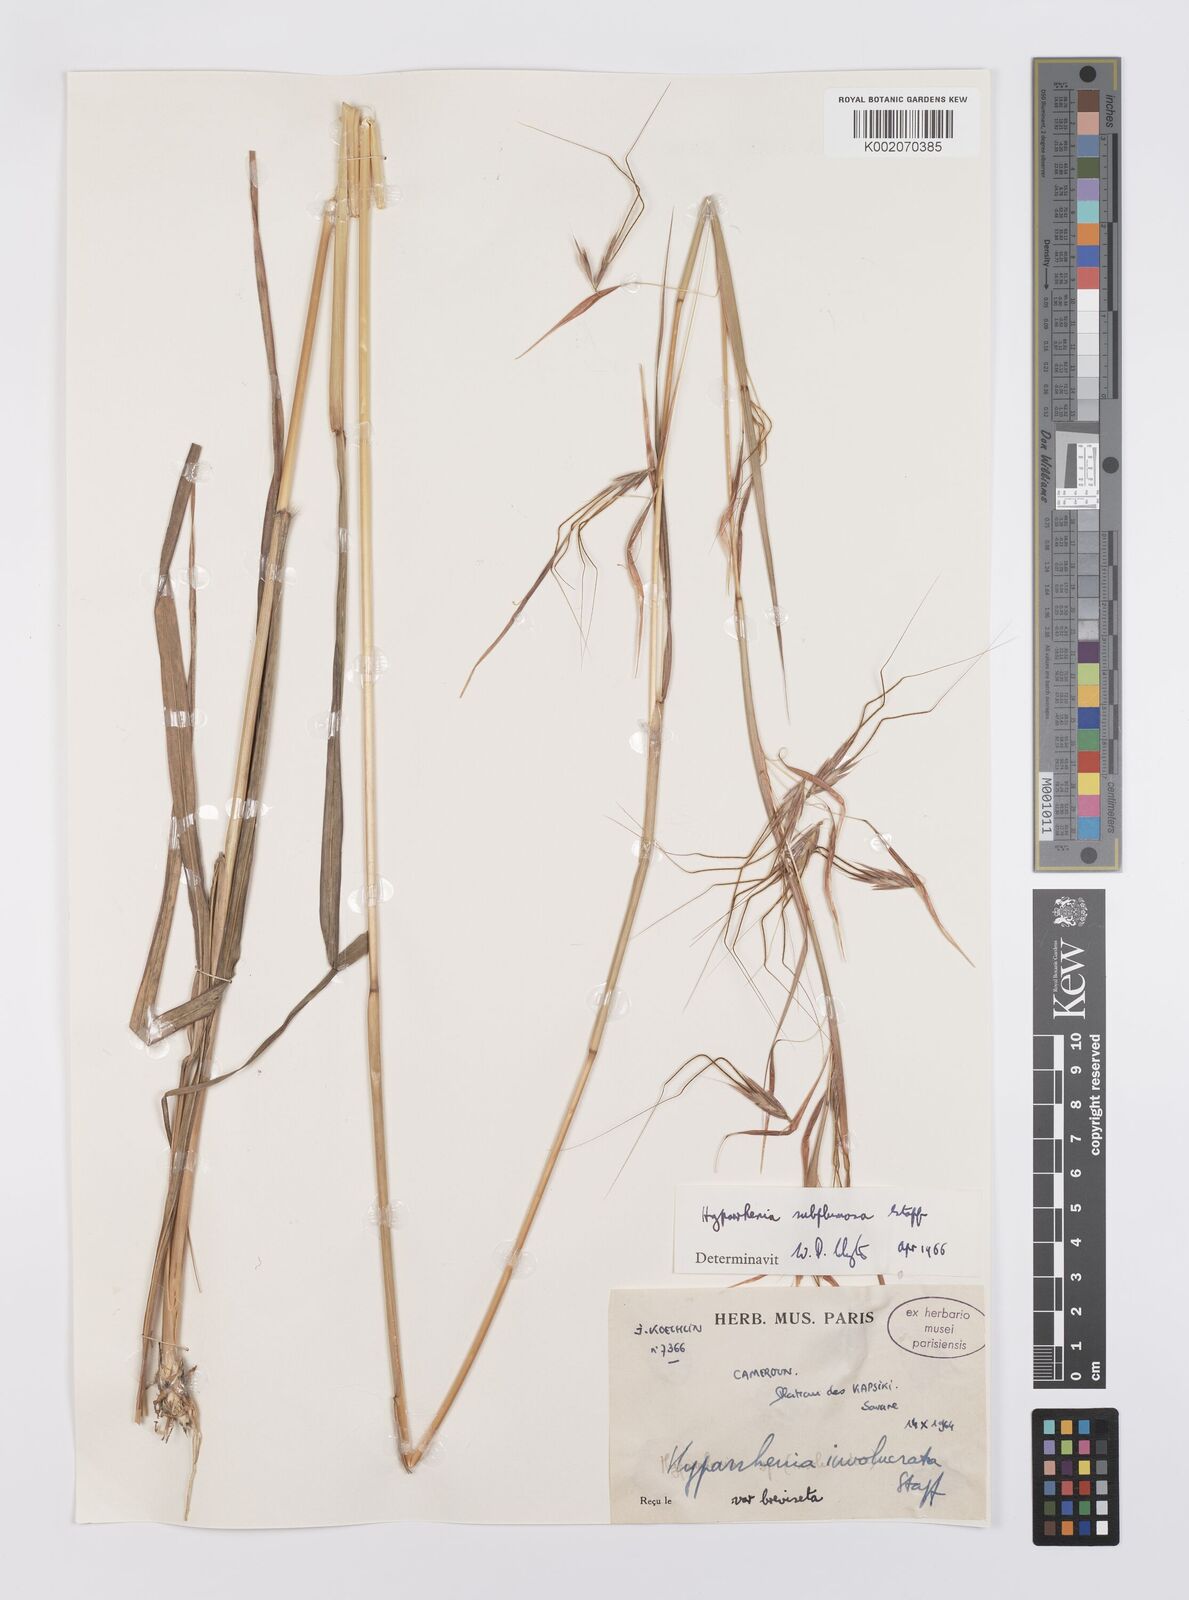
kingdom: Plantae
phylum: Tracheophyta
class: Liliopsida
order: Poales
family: Poaceae
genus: Hyparrhenia
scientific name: Hyparrhenia subplumosa
